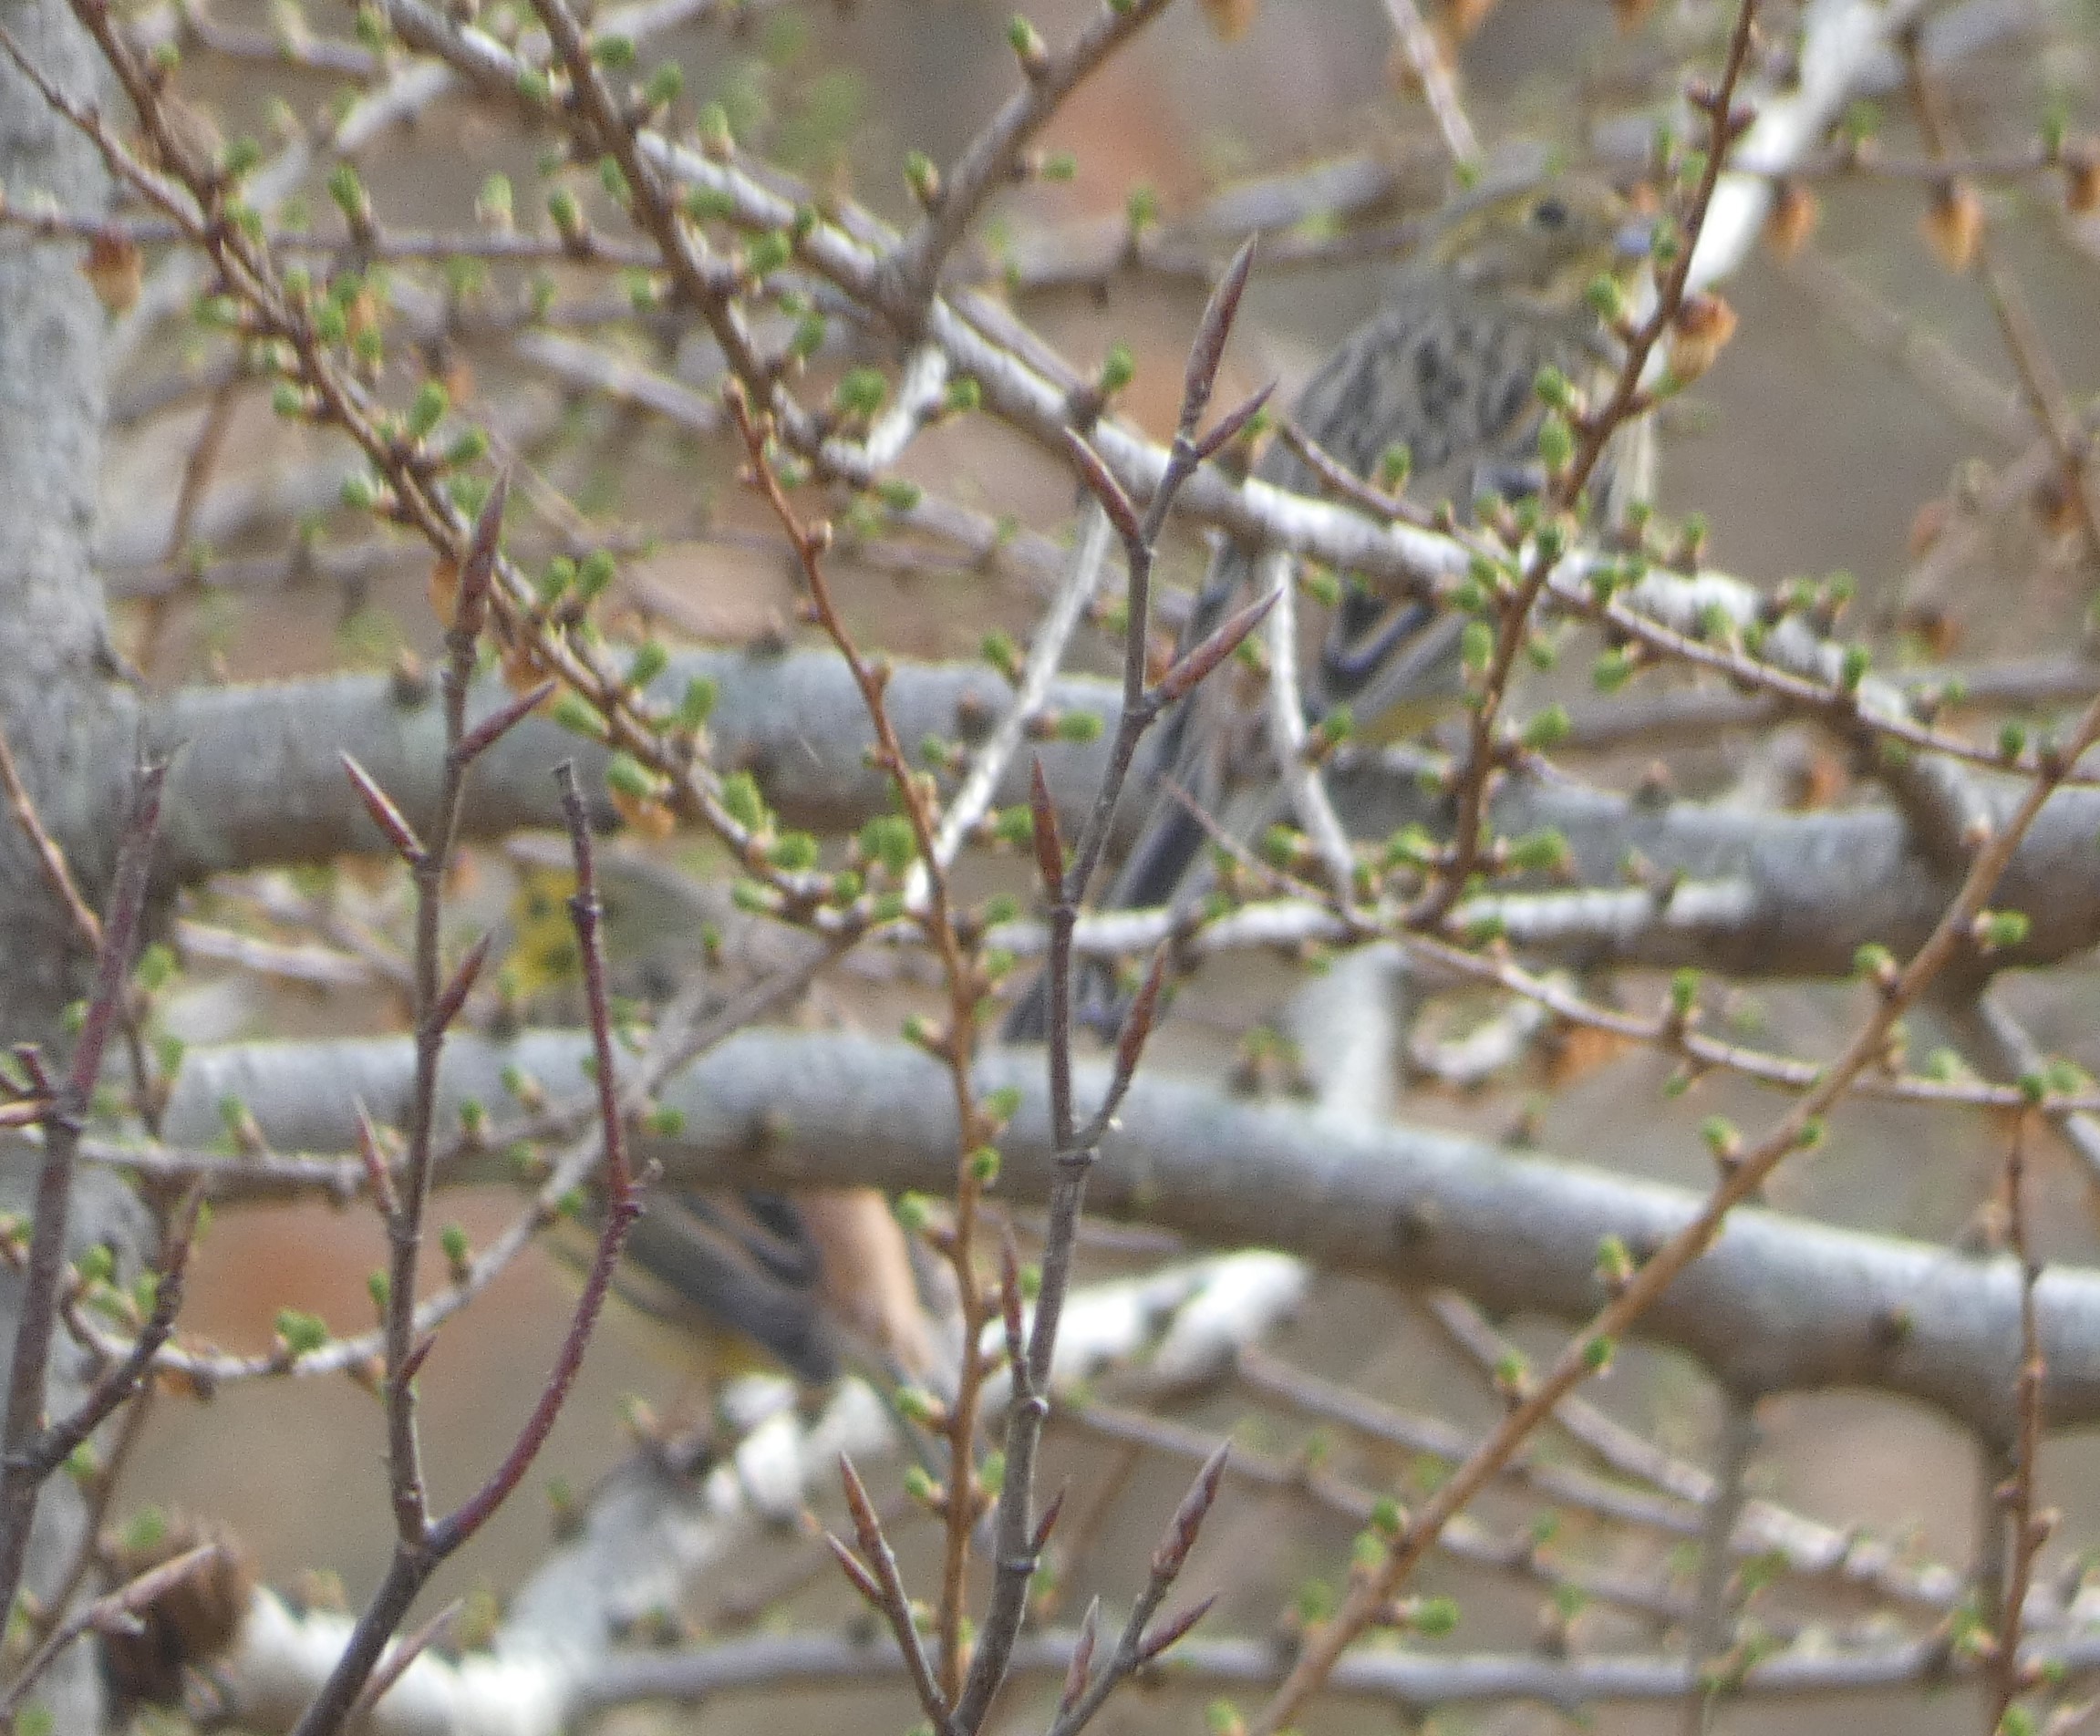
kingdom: Animalia
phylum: Chordata
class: Aves
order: Passeriformes
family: Emberizidae
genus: Emberiza
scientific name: Emberiza citrinella
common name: Gulspurv
